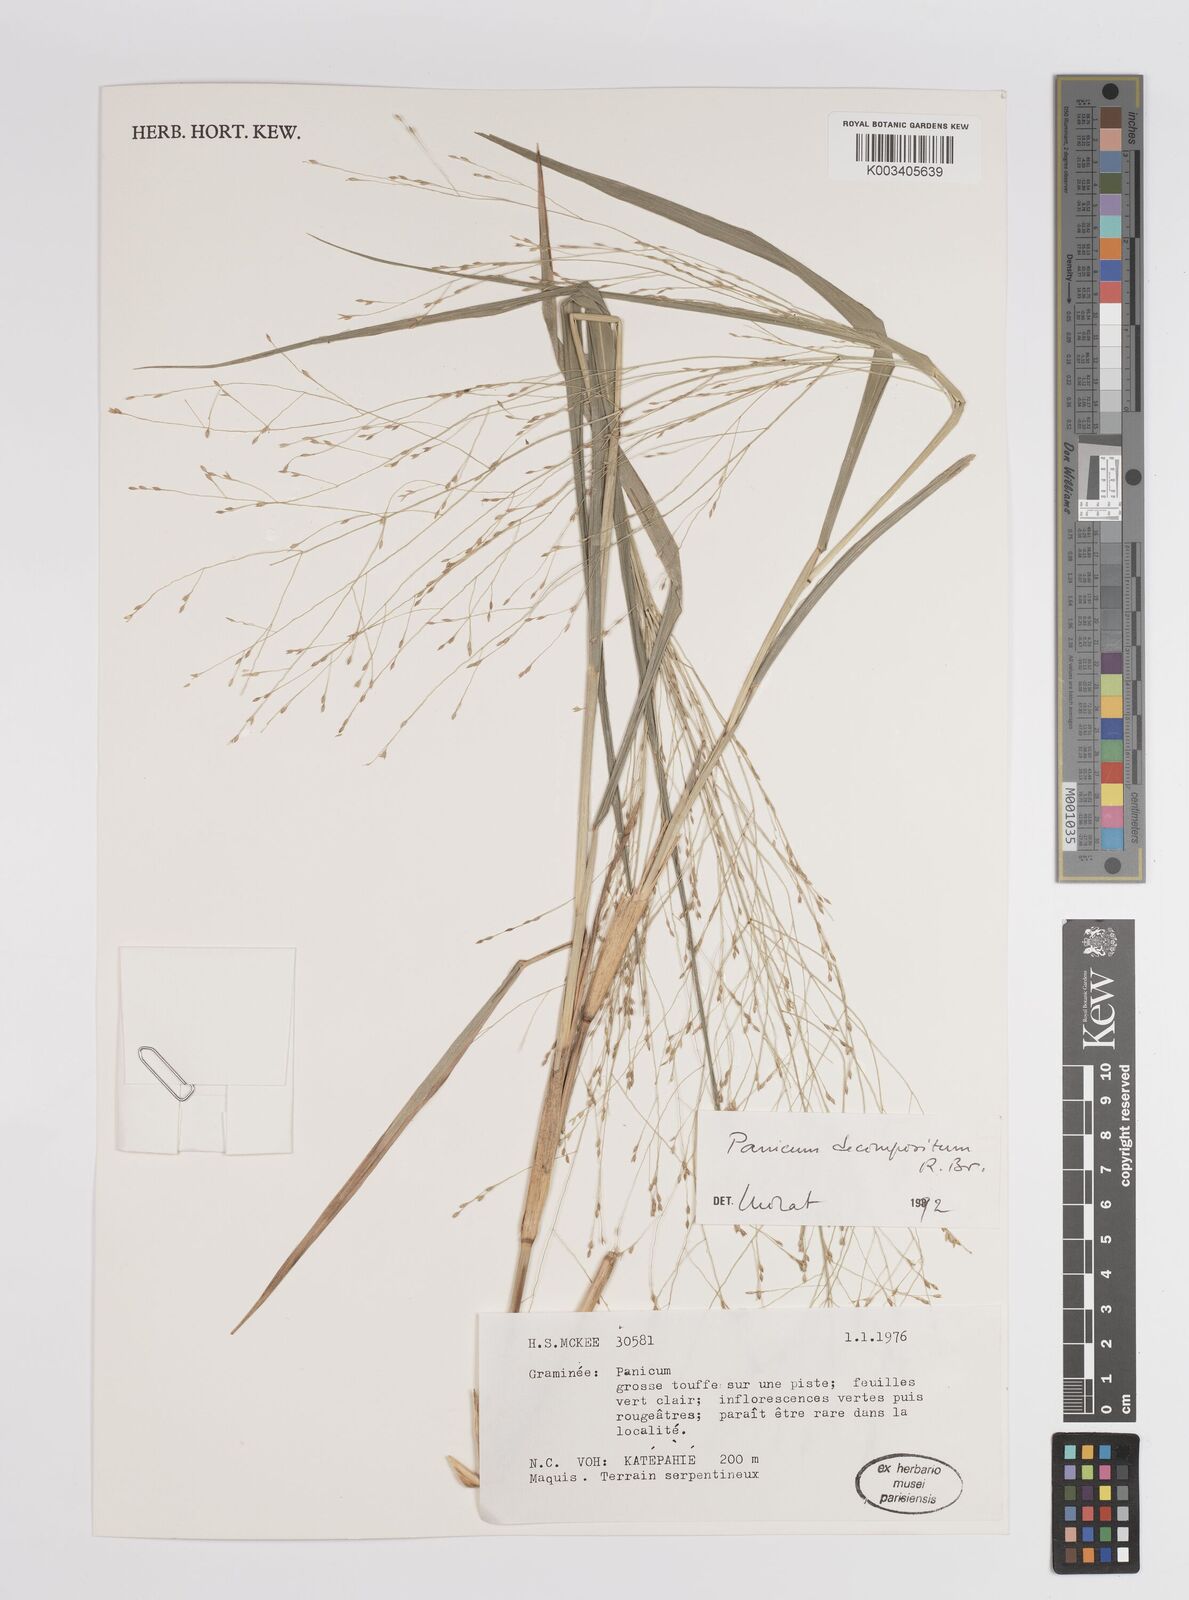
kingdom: Plantae
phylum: Tracheophyta
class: Liliopsida
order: Poales
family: Poaceae
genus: Panicum
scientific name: Panicum decompositum
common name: Australian millet
